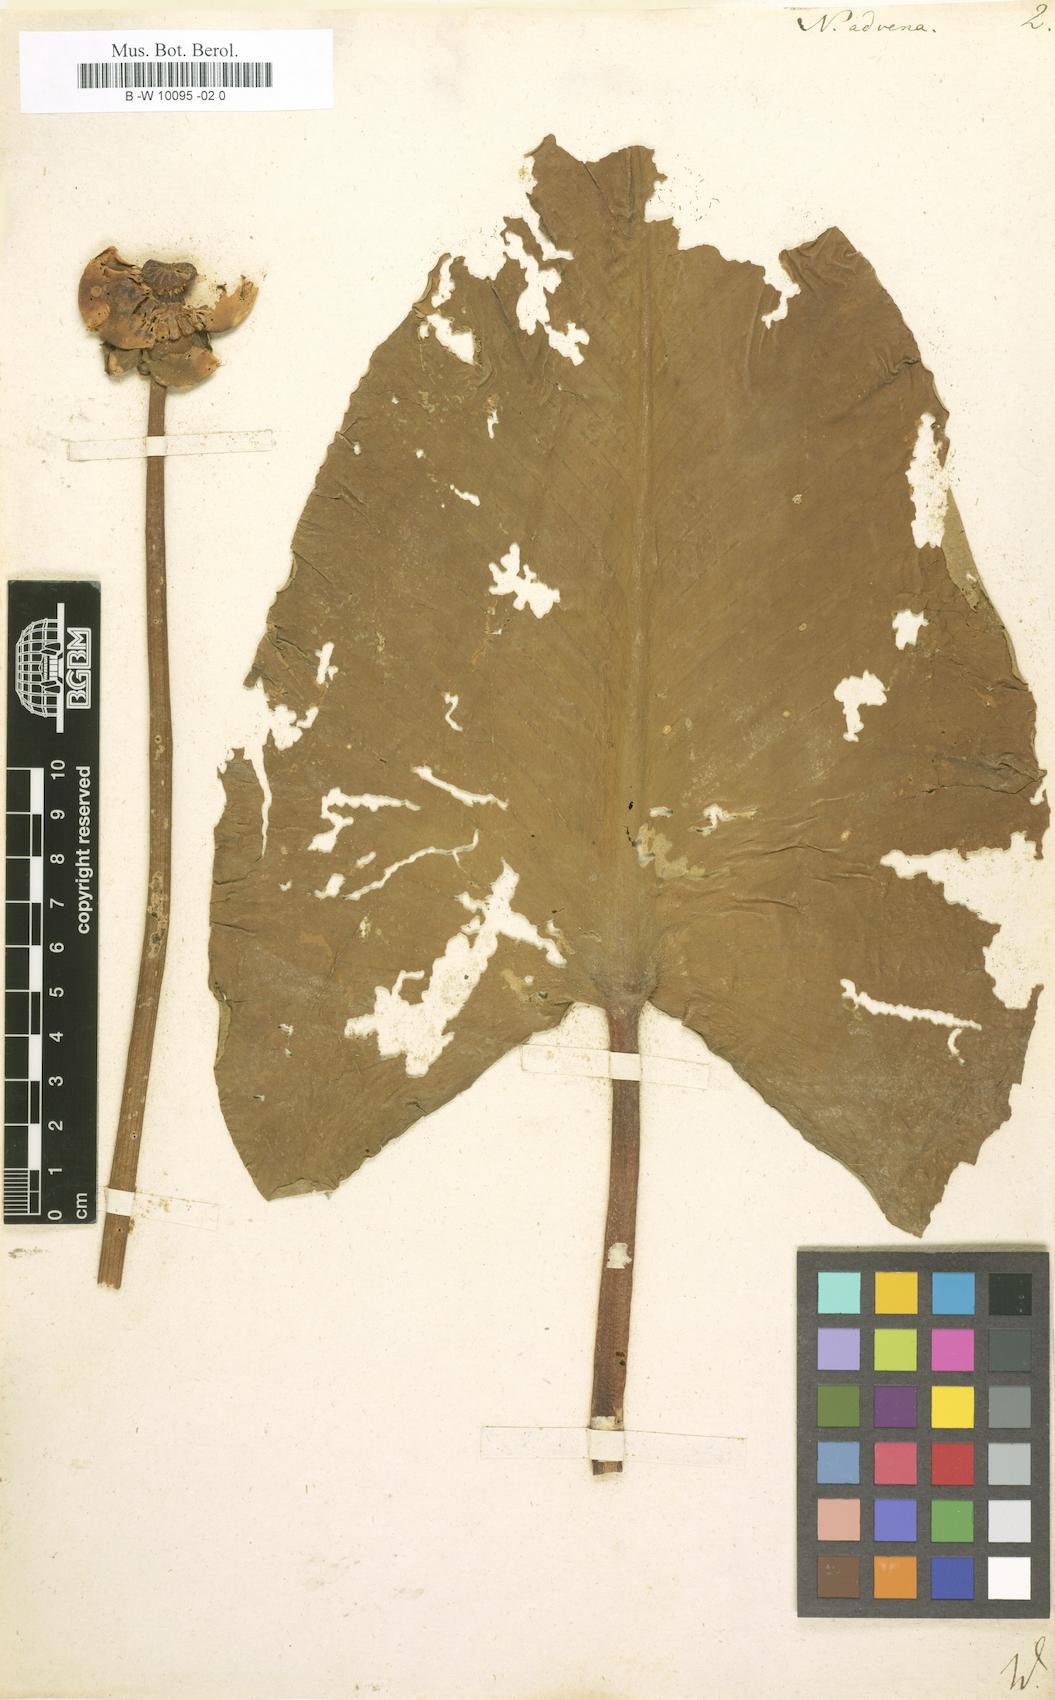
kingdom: Plantae
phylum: Tracheophyta
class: Magnoliopsida
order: Nymphaeales
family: Nymphaeaceae
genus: Nuphar
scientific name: Nuphar advena
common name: Spatter-dock
